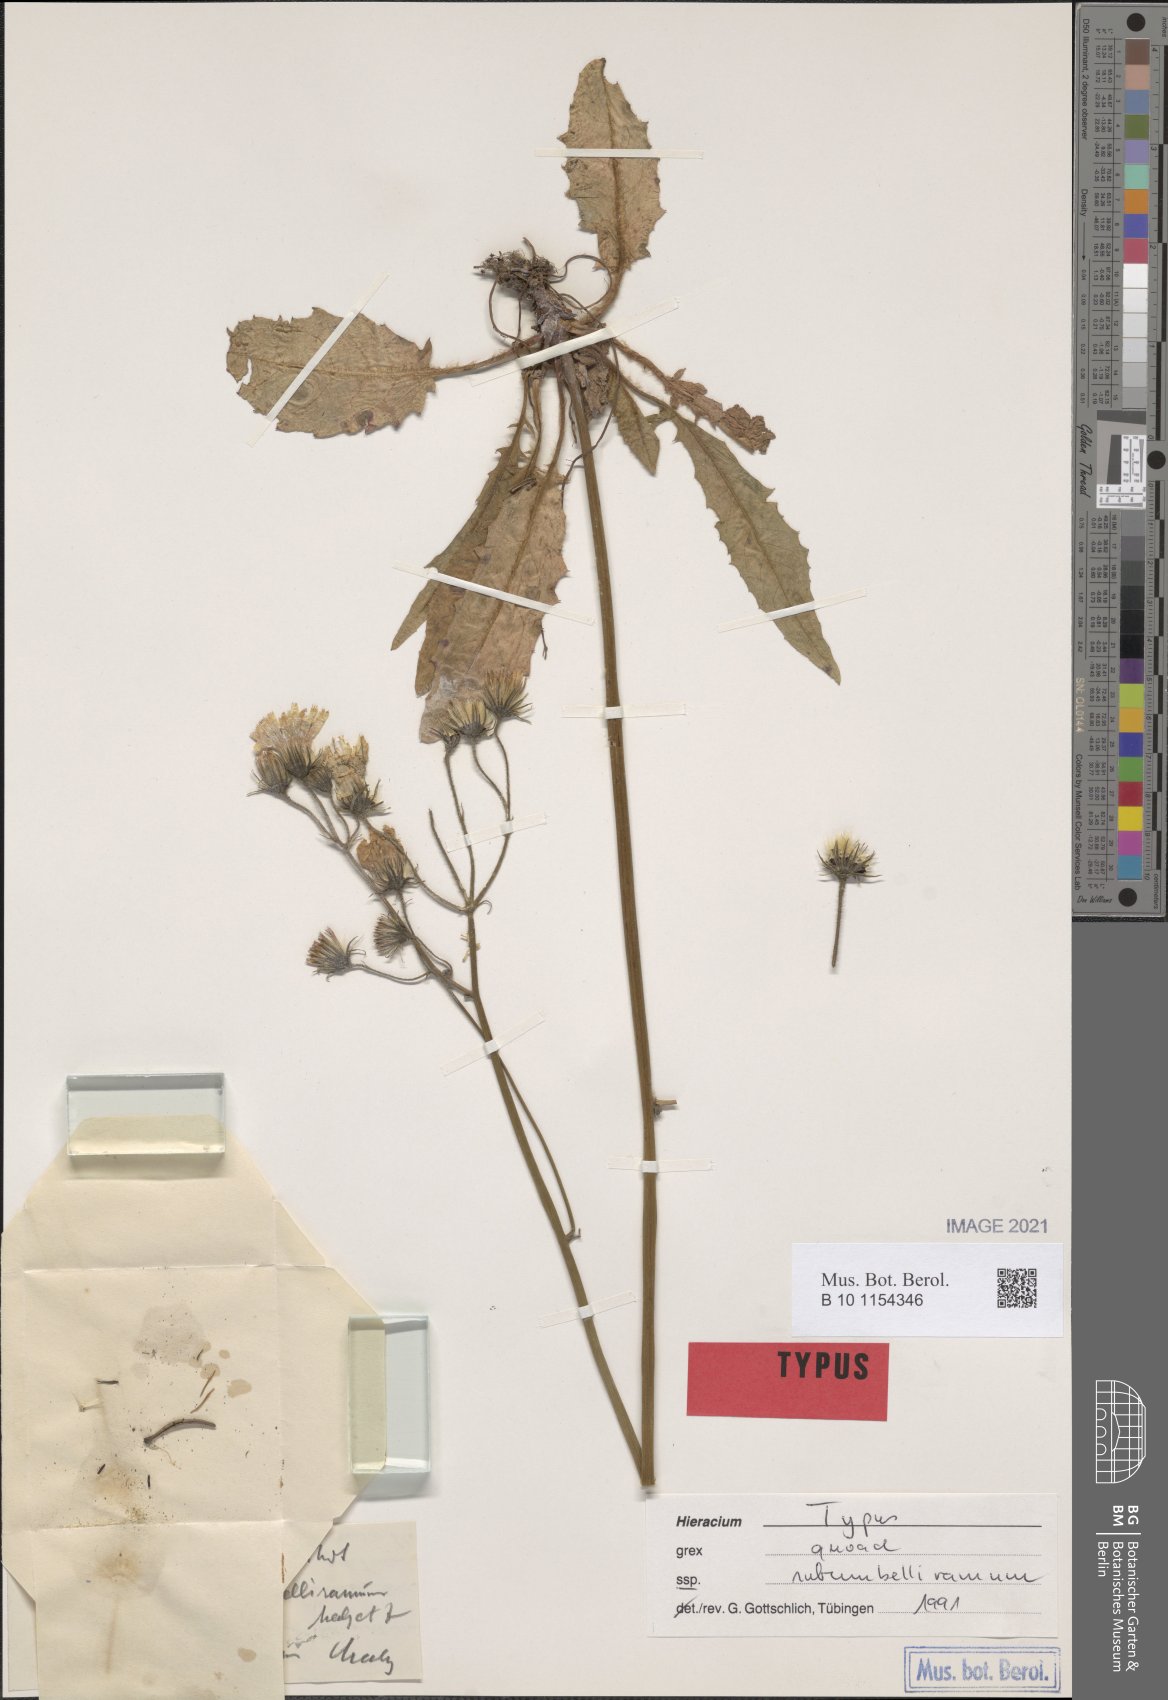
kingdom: Plantae
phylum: Tracheophyta
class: Magnoliopsida
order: Asterales
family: Asteraceae
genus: Hieracium
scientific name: Hieracium rotundatum
